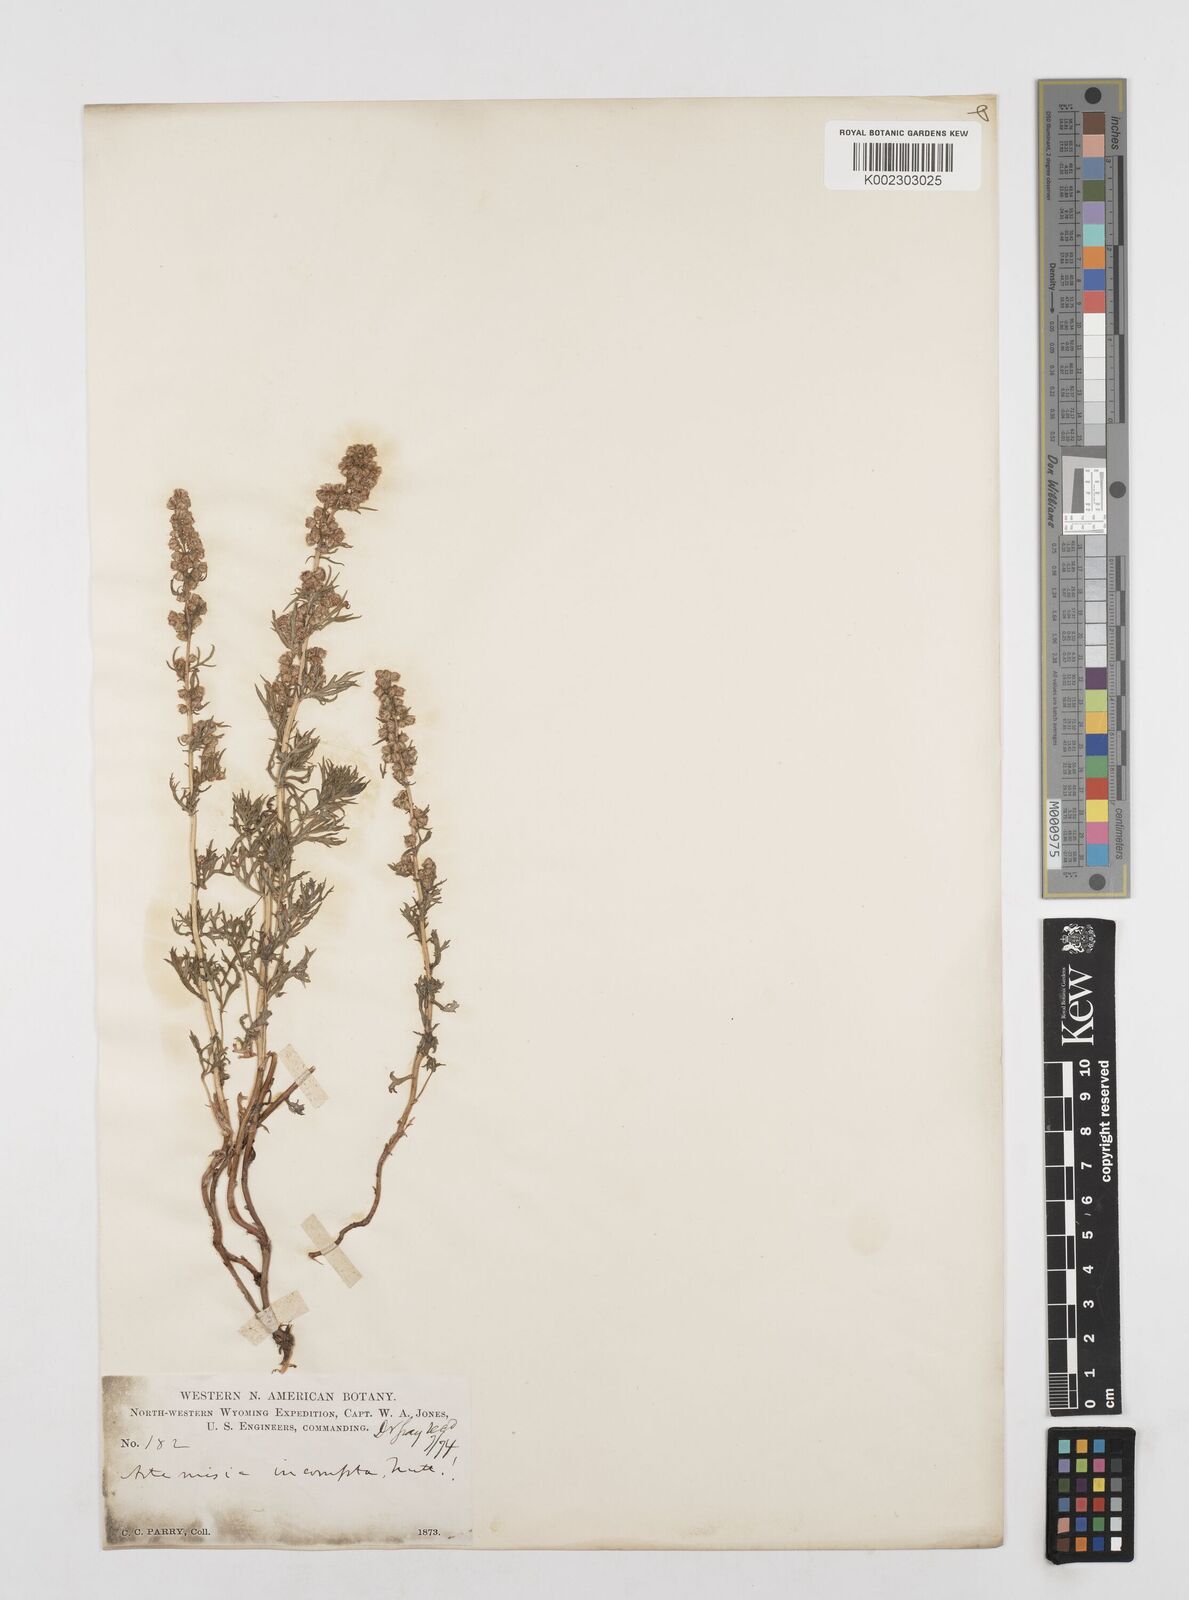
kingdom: Plantae
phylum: Tracheophyta
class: Magnoliopsida
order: Asterales
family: Asteraceae
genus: Artemisia
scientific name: Artemisia michauxiana
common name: Lemon sagewort
